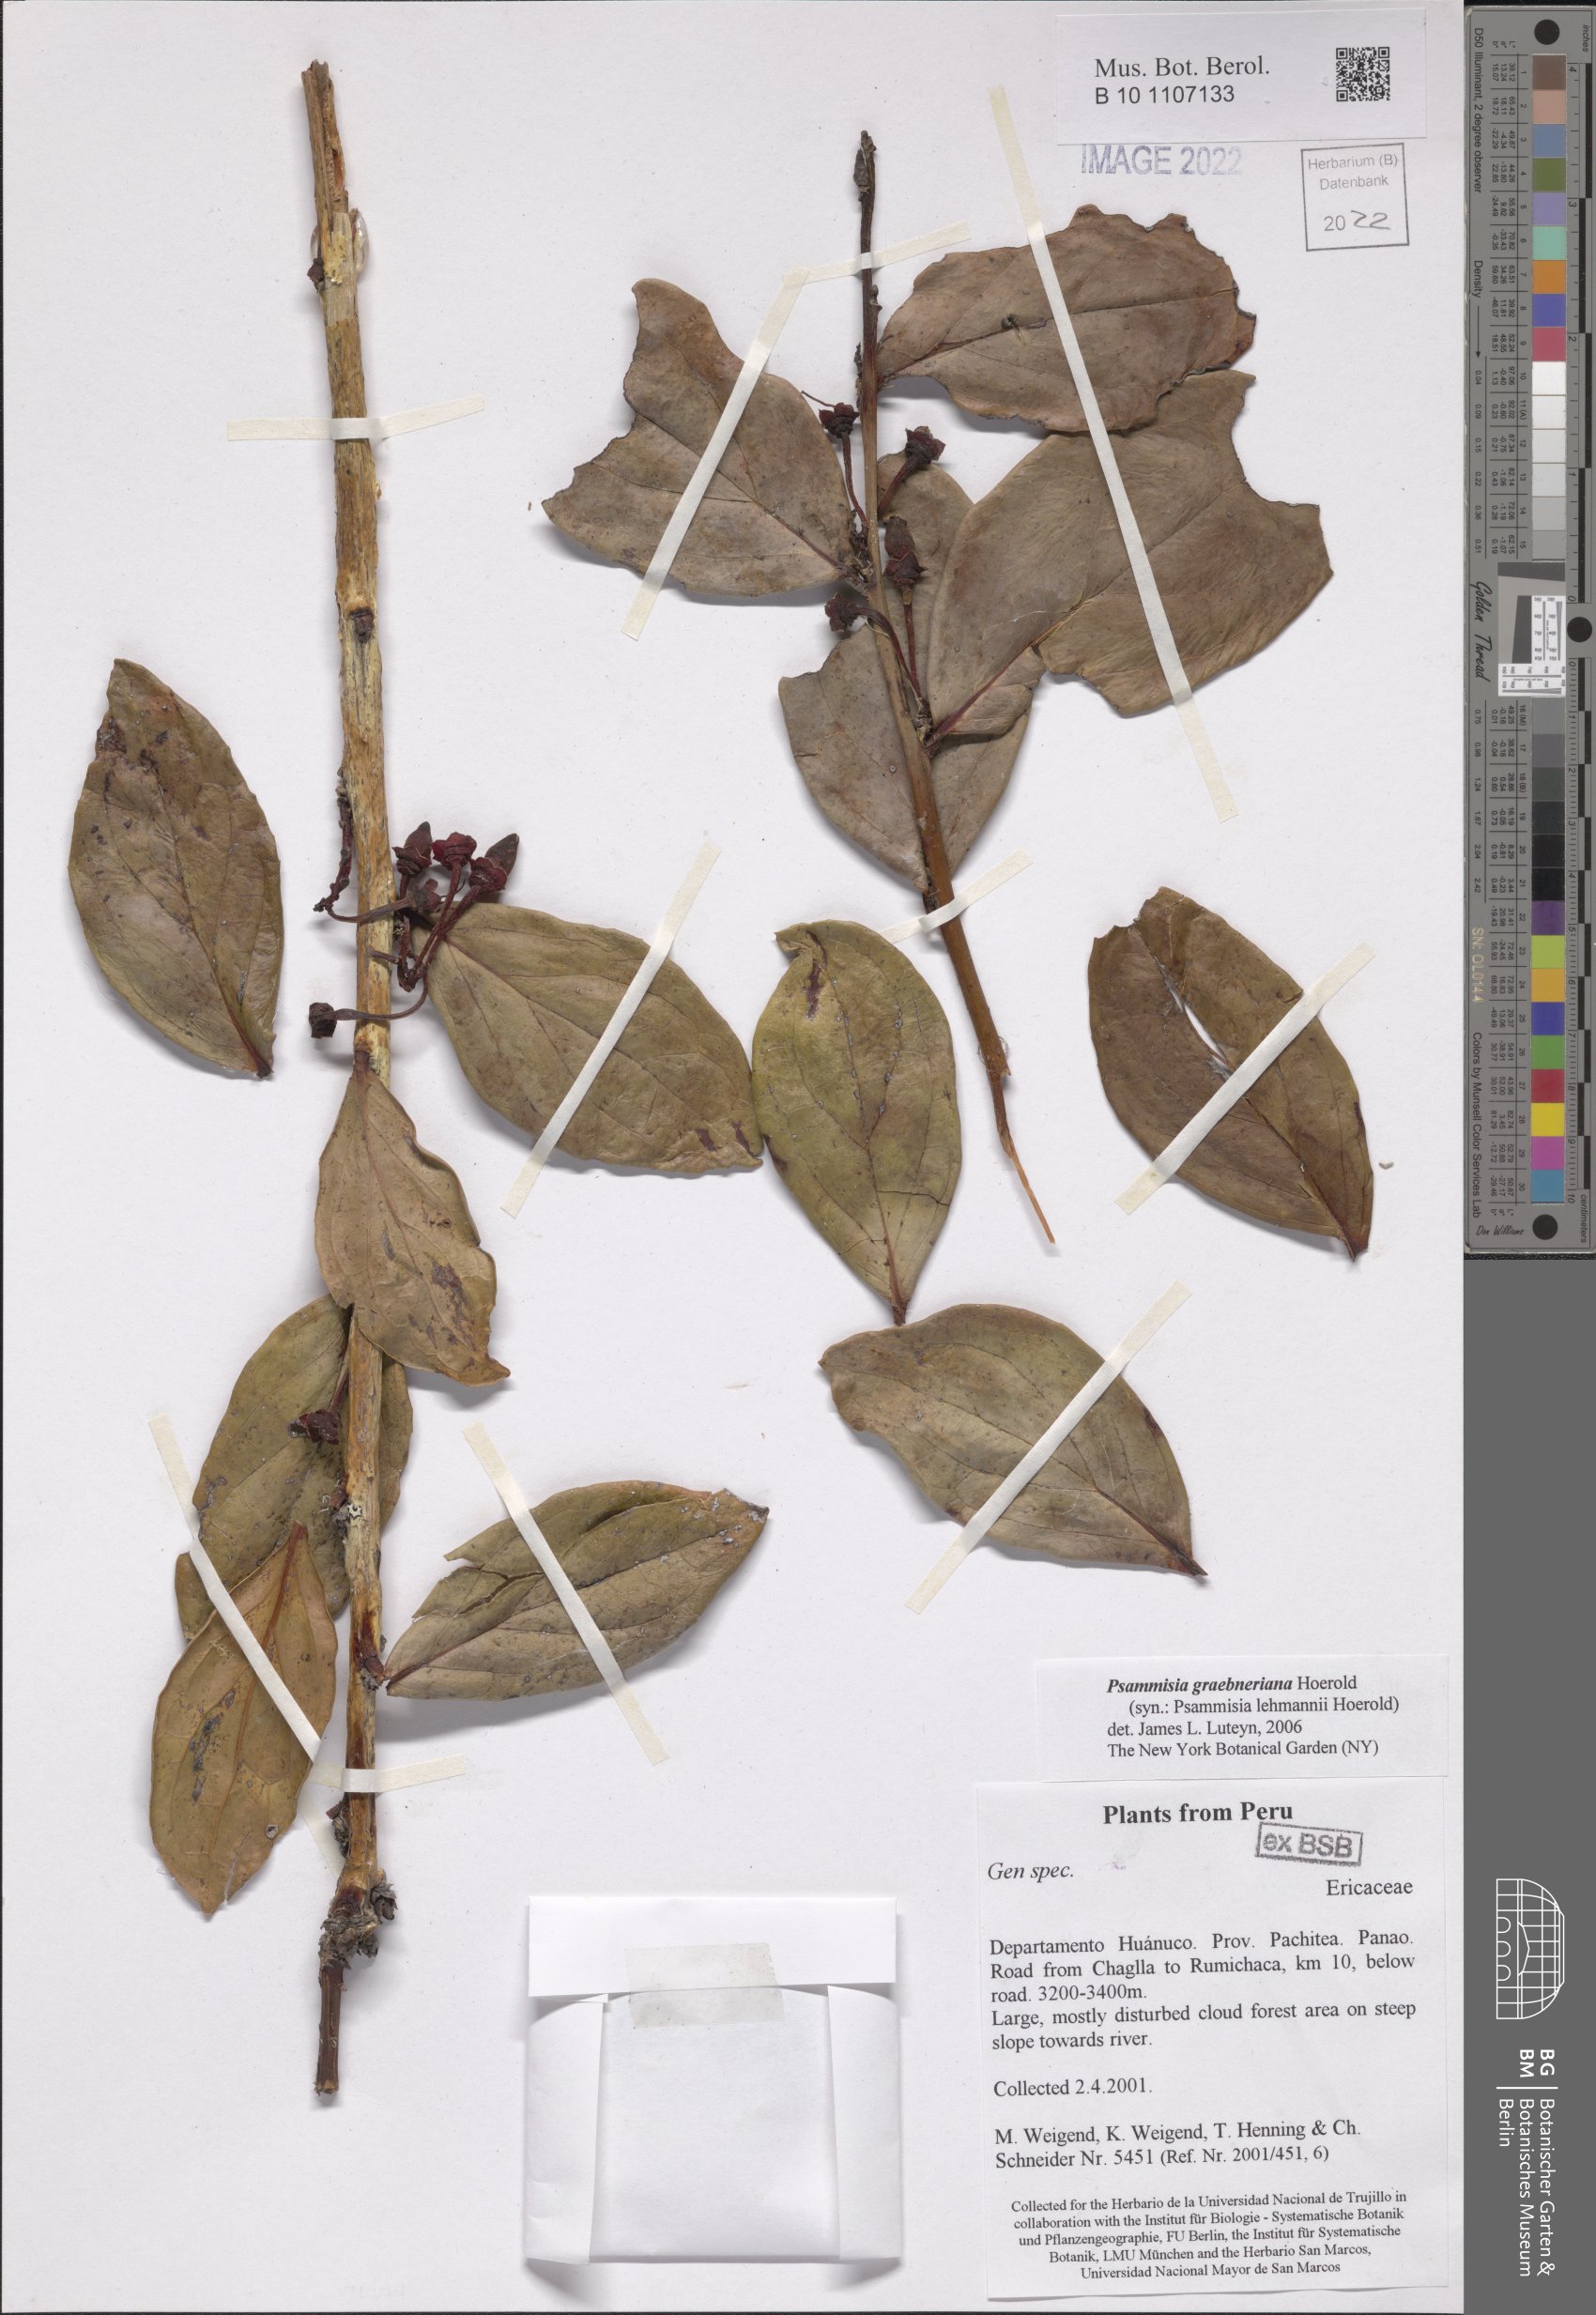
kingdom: Plantae
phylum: Tracheophyta
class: Magnoliopsida
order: Ericales
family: Ericaceae
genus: Psammisia
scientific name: Psammisia graebneriana
